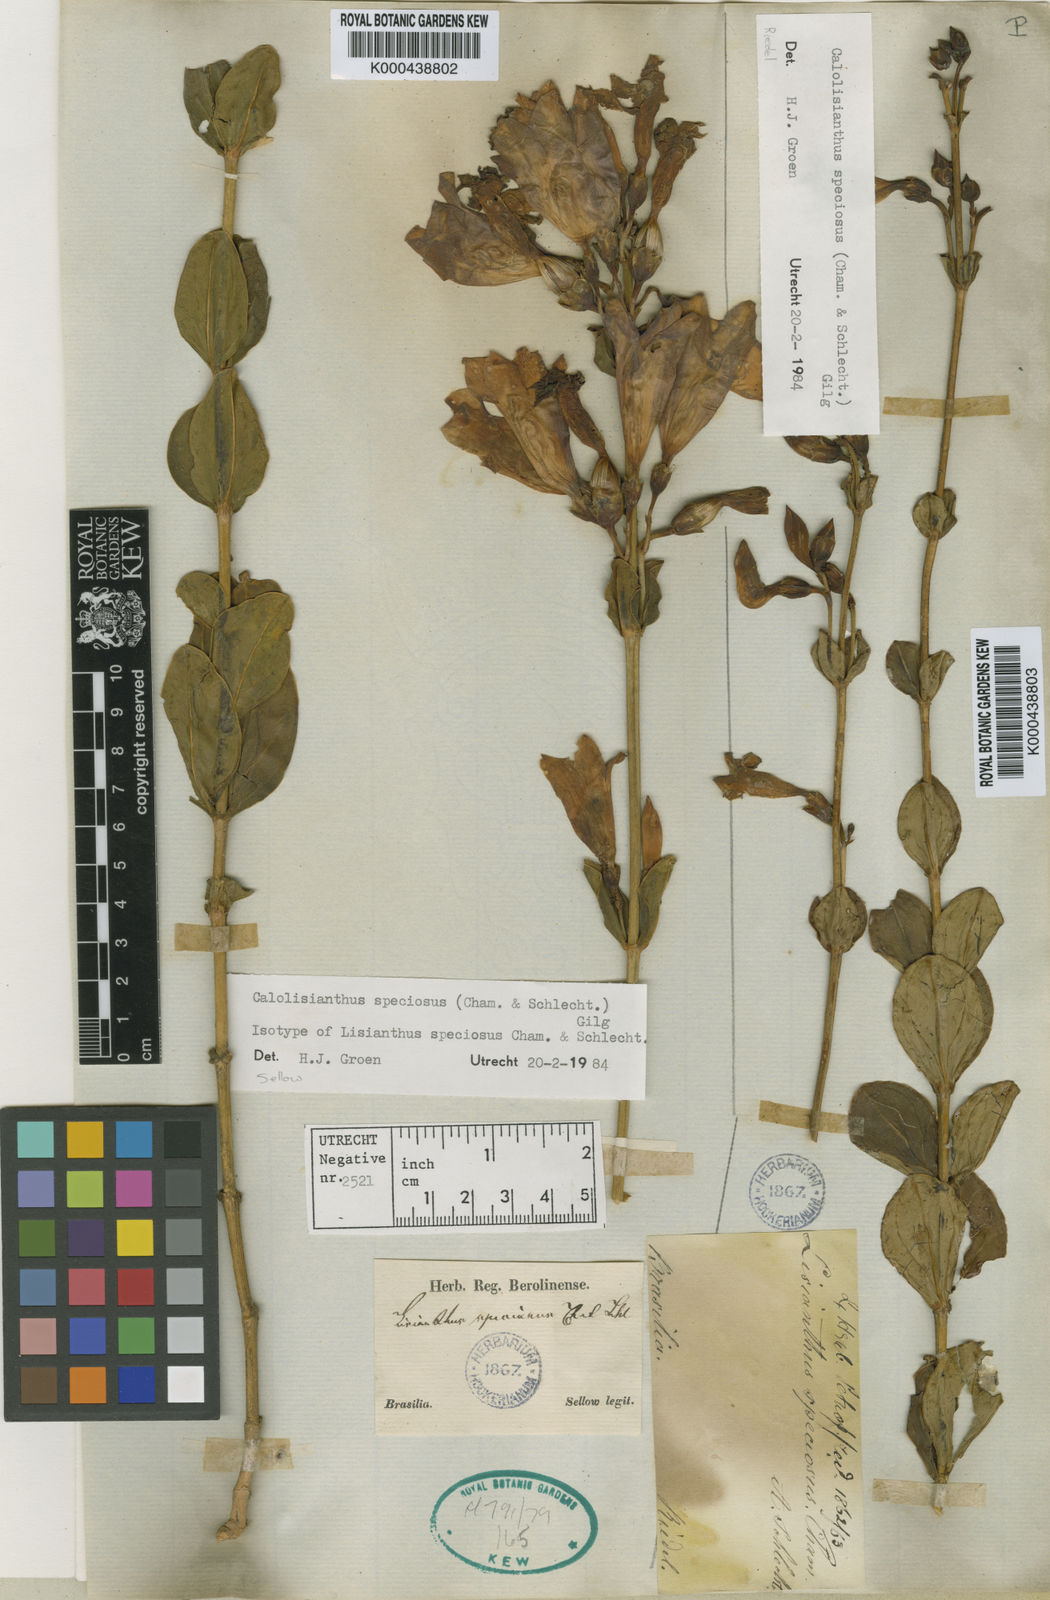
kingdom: Plantae
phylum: Tracheophyta
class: Magnoliopsida
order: Gentianales
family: Gentianaceae
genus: Calolisianthus
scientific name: Calolisianthus speciosus
